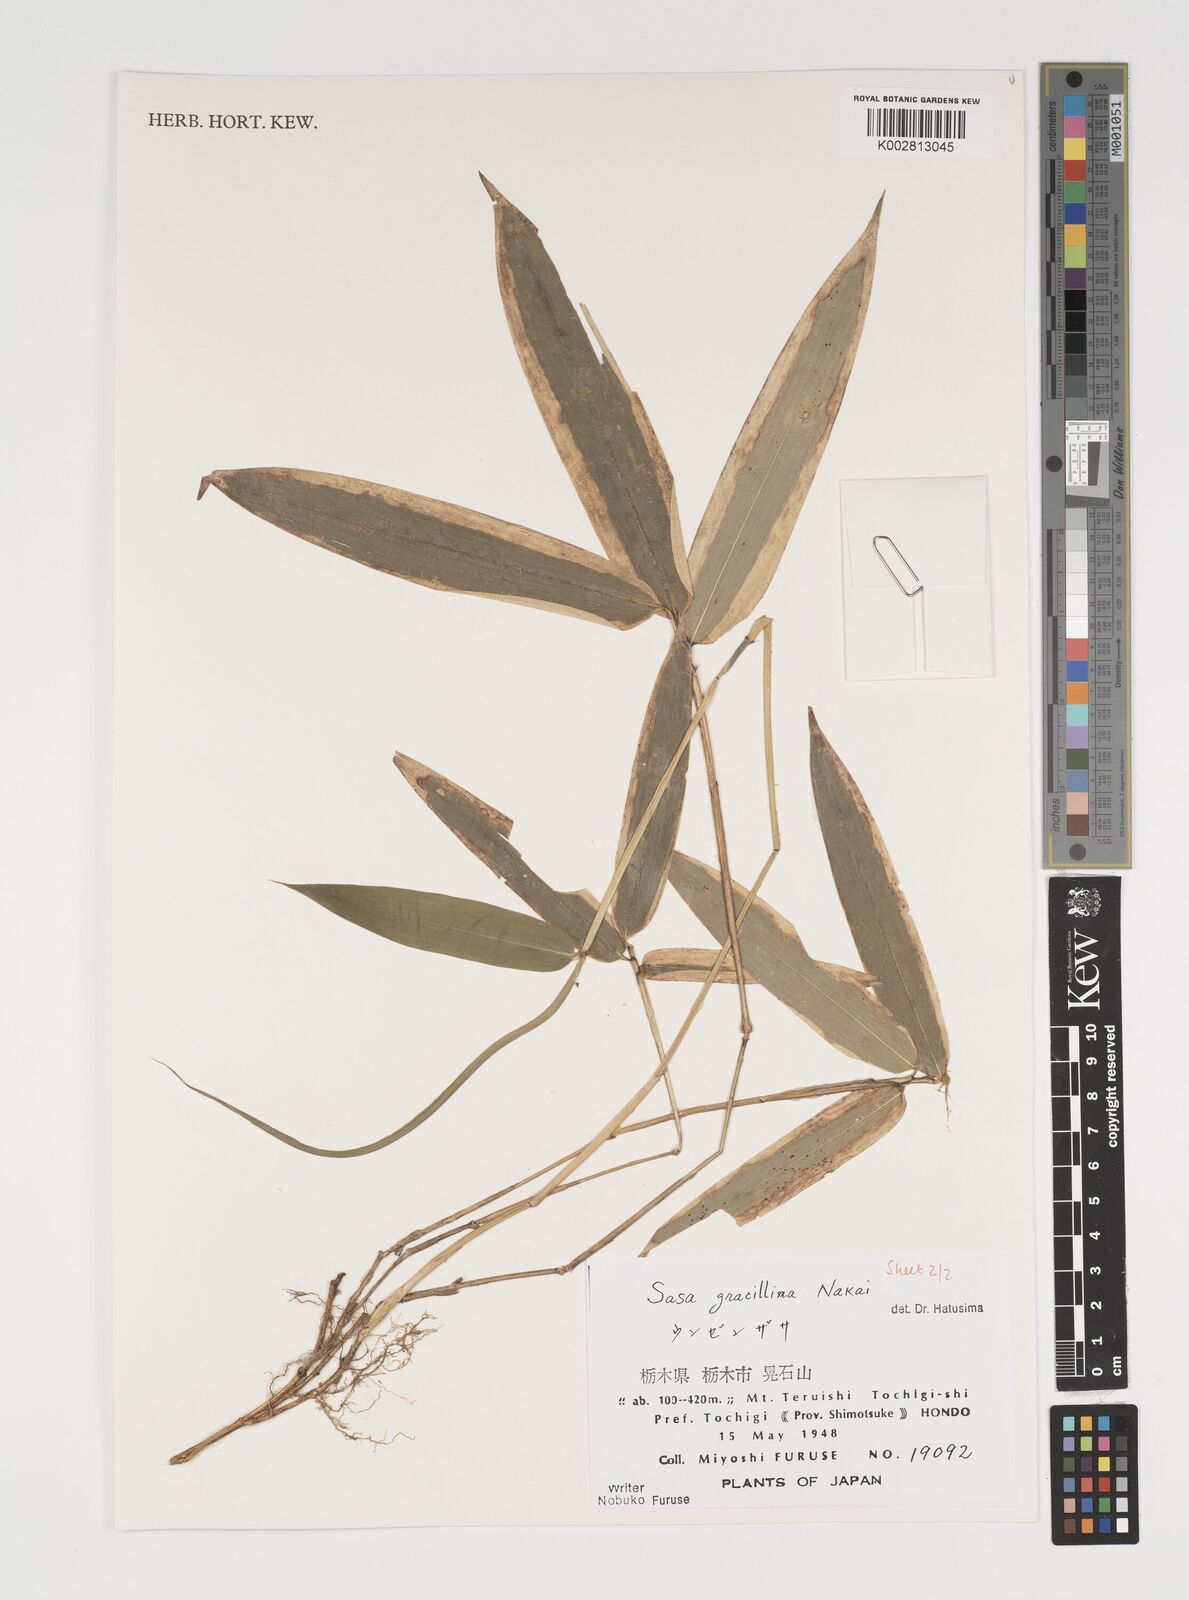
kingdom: Plantae
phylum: Tracheophyta
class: Liliopsida
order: Poales
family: Poaceae
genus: Sasa
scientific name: Sasa gracillima
